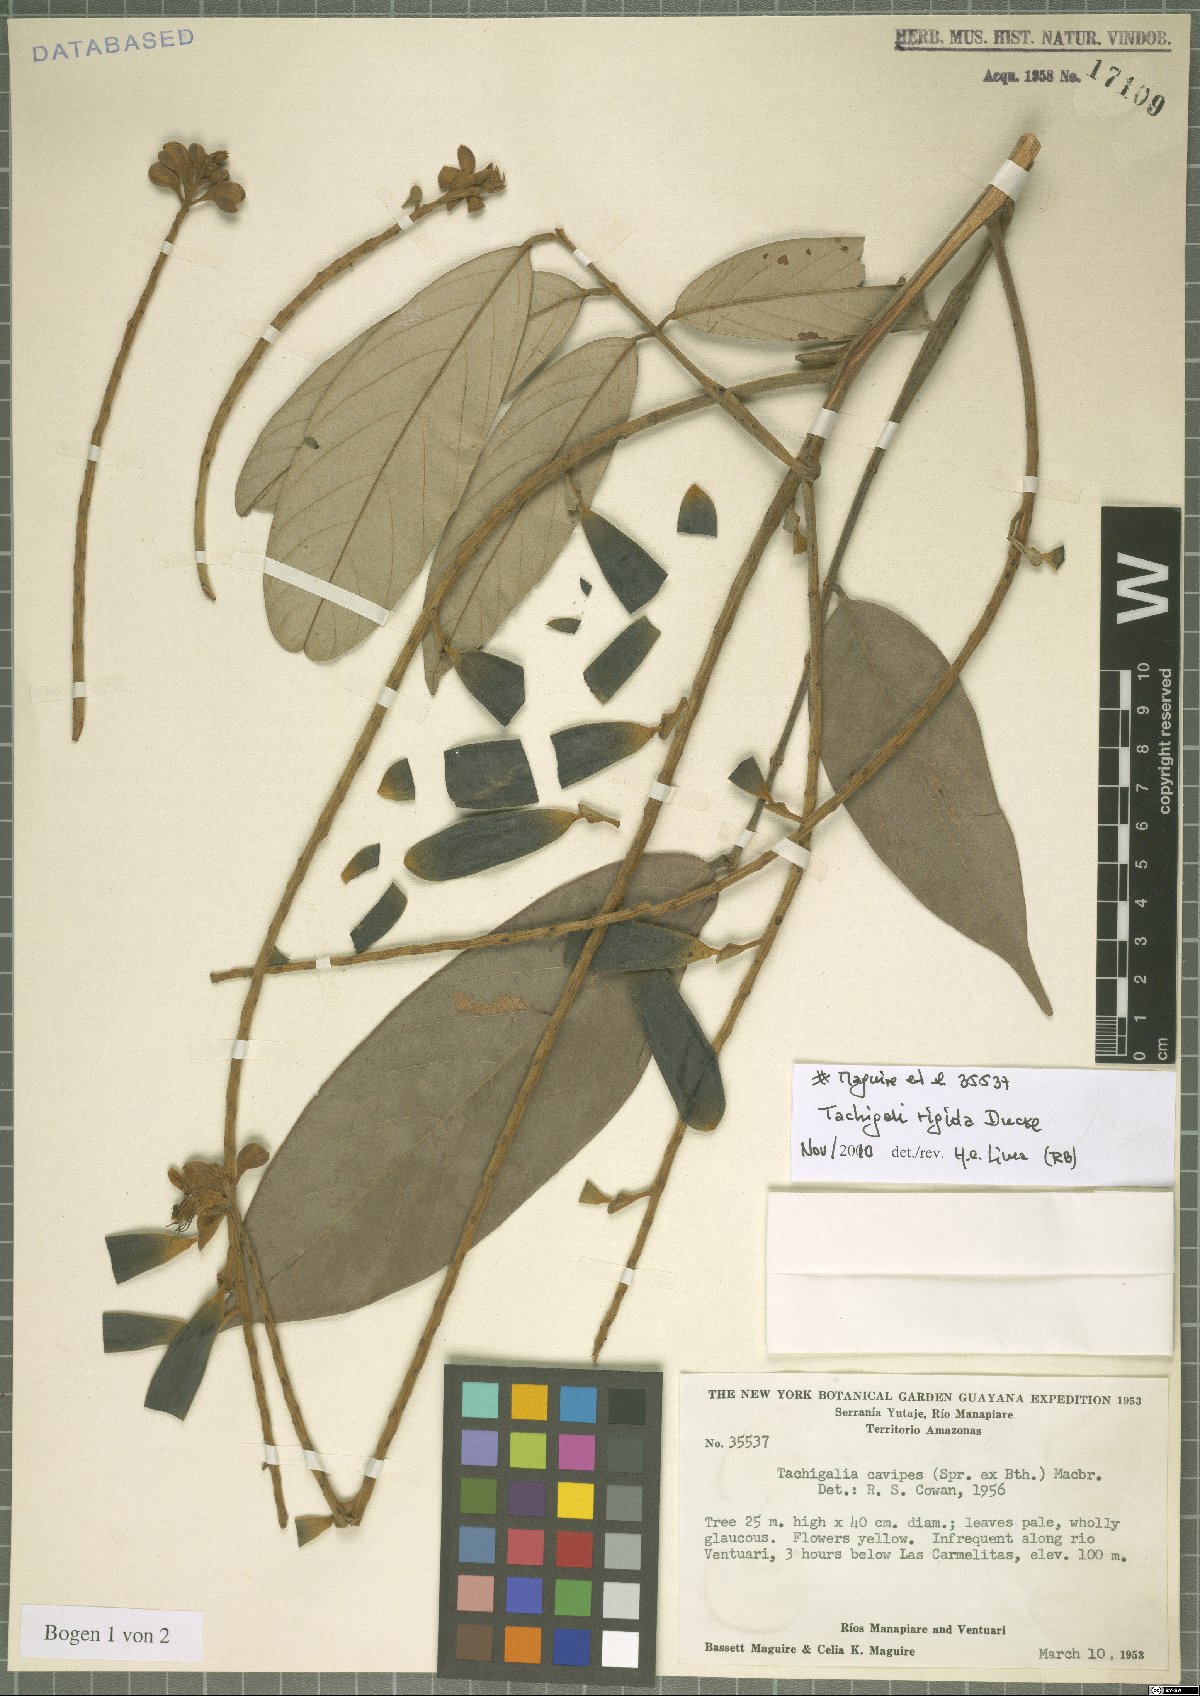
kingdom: Plantae
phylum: Tracheophyta
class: Magnoliopsida
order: Fabales
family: Fabaceae
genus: Tachigali
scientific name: Tachigali rigida
